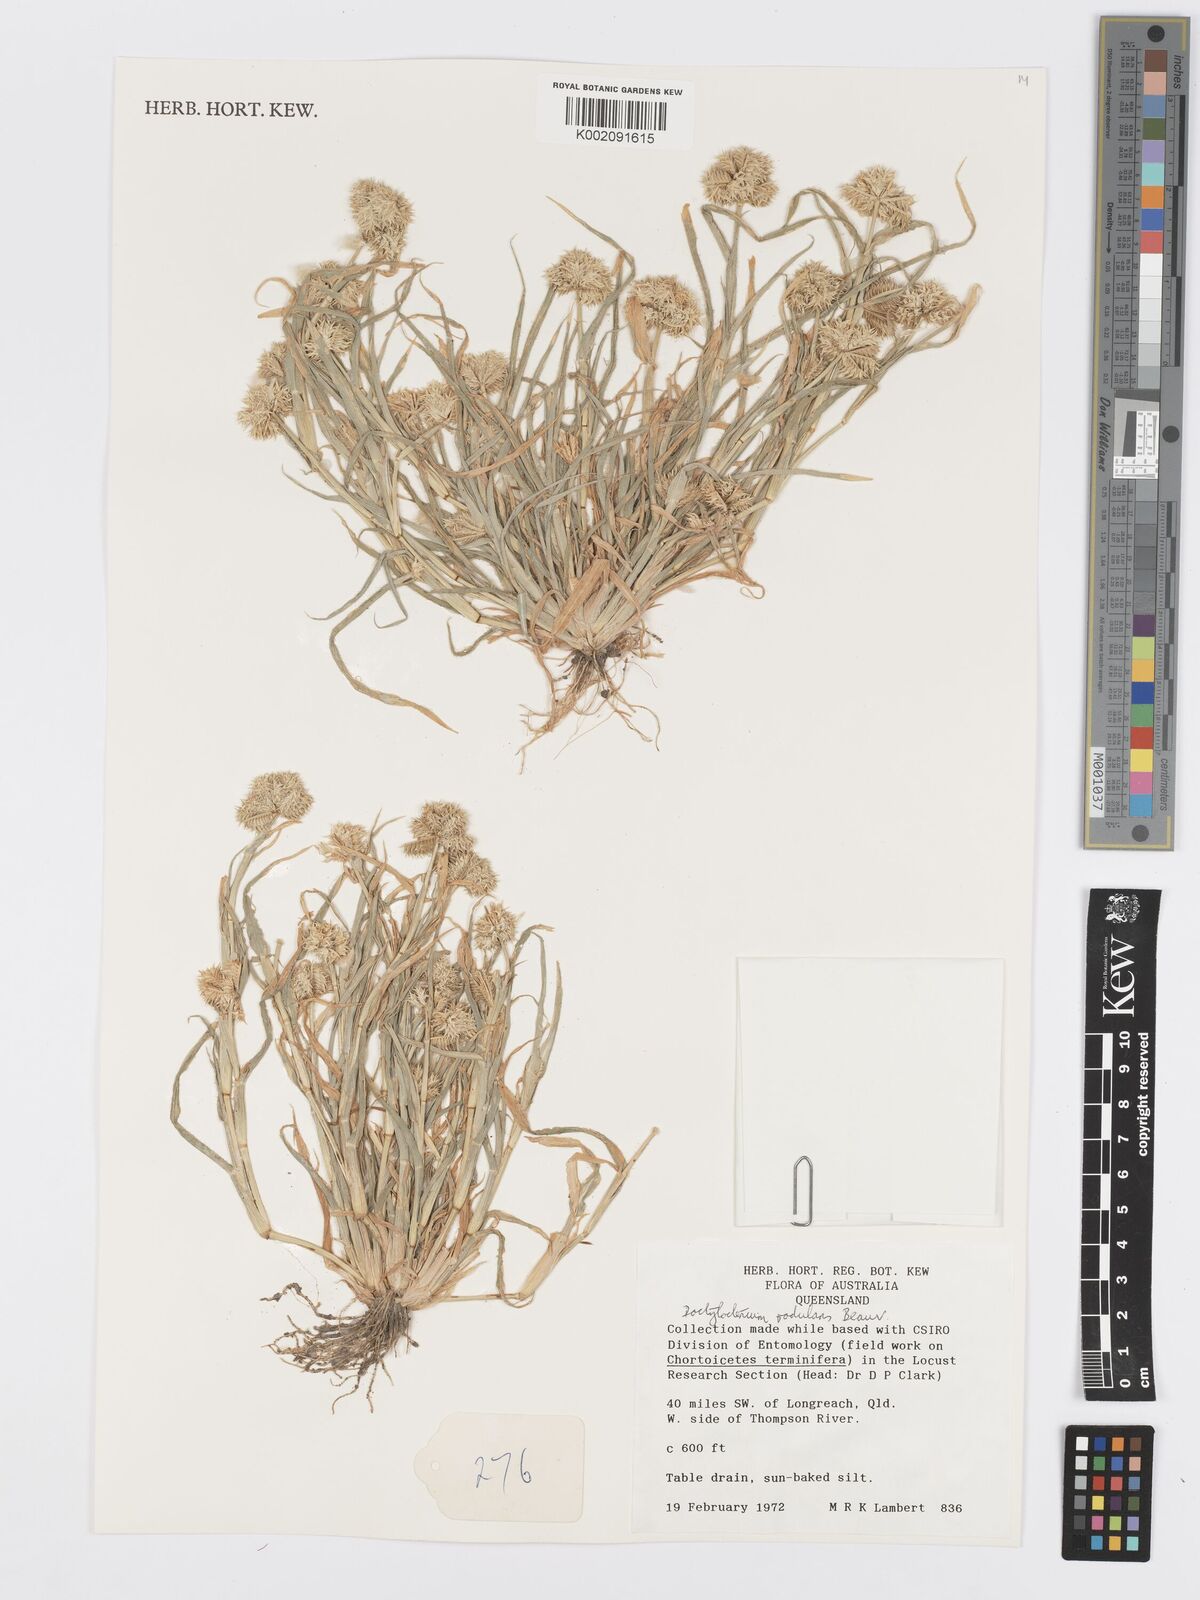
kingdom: Plantae
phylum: Tracheophyta
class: Liliopsida
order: Poales
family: Poaceae
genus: Dactyloctenium
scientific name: Dactyloctenium radulans
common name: Button-grass
